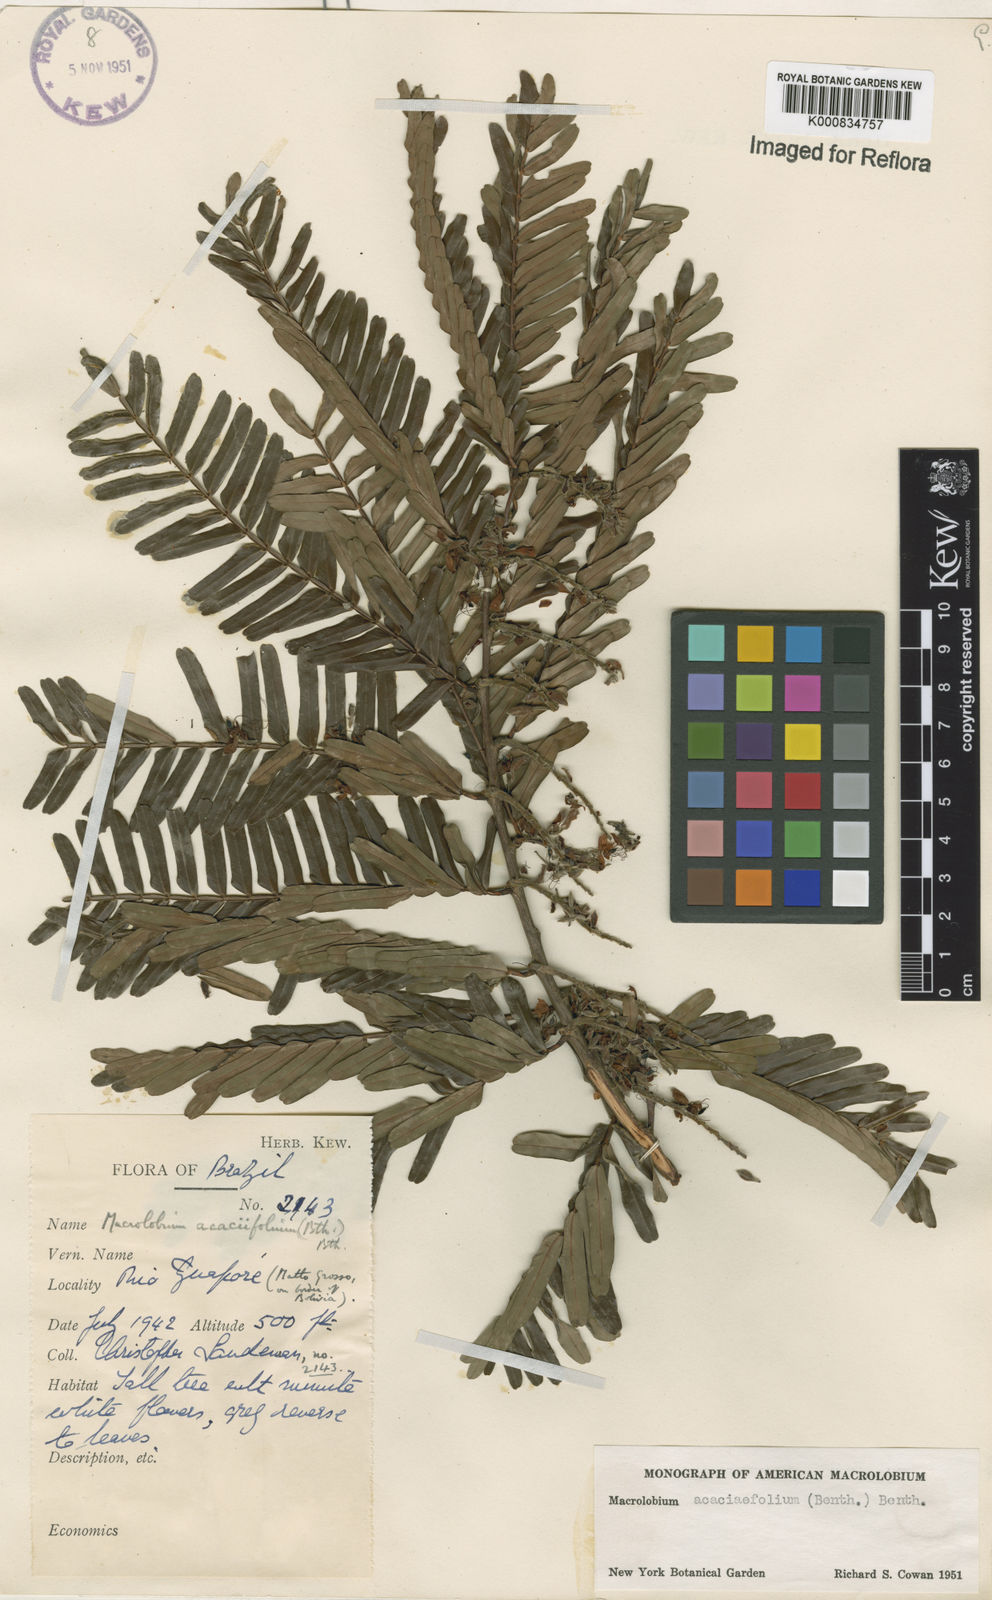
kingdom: Plantae
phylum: Tracheophyta
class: Magnoliopsida
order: Fabales
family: Fabaceae
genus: Macrolobium
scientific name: Macrolobium acaciifolium
